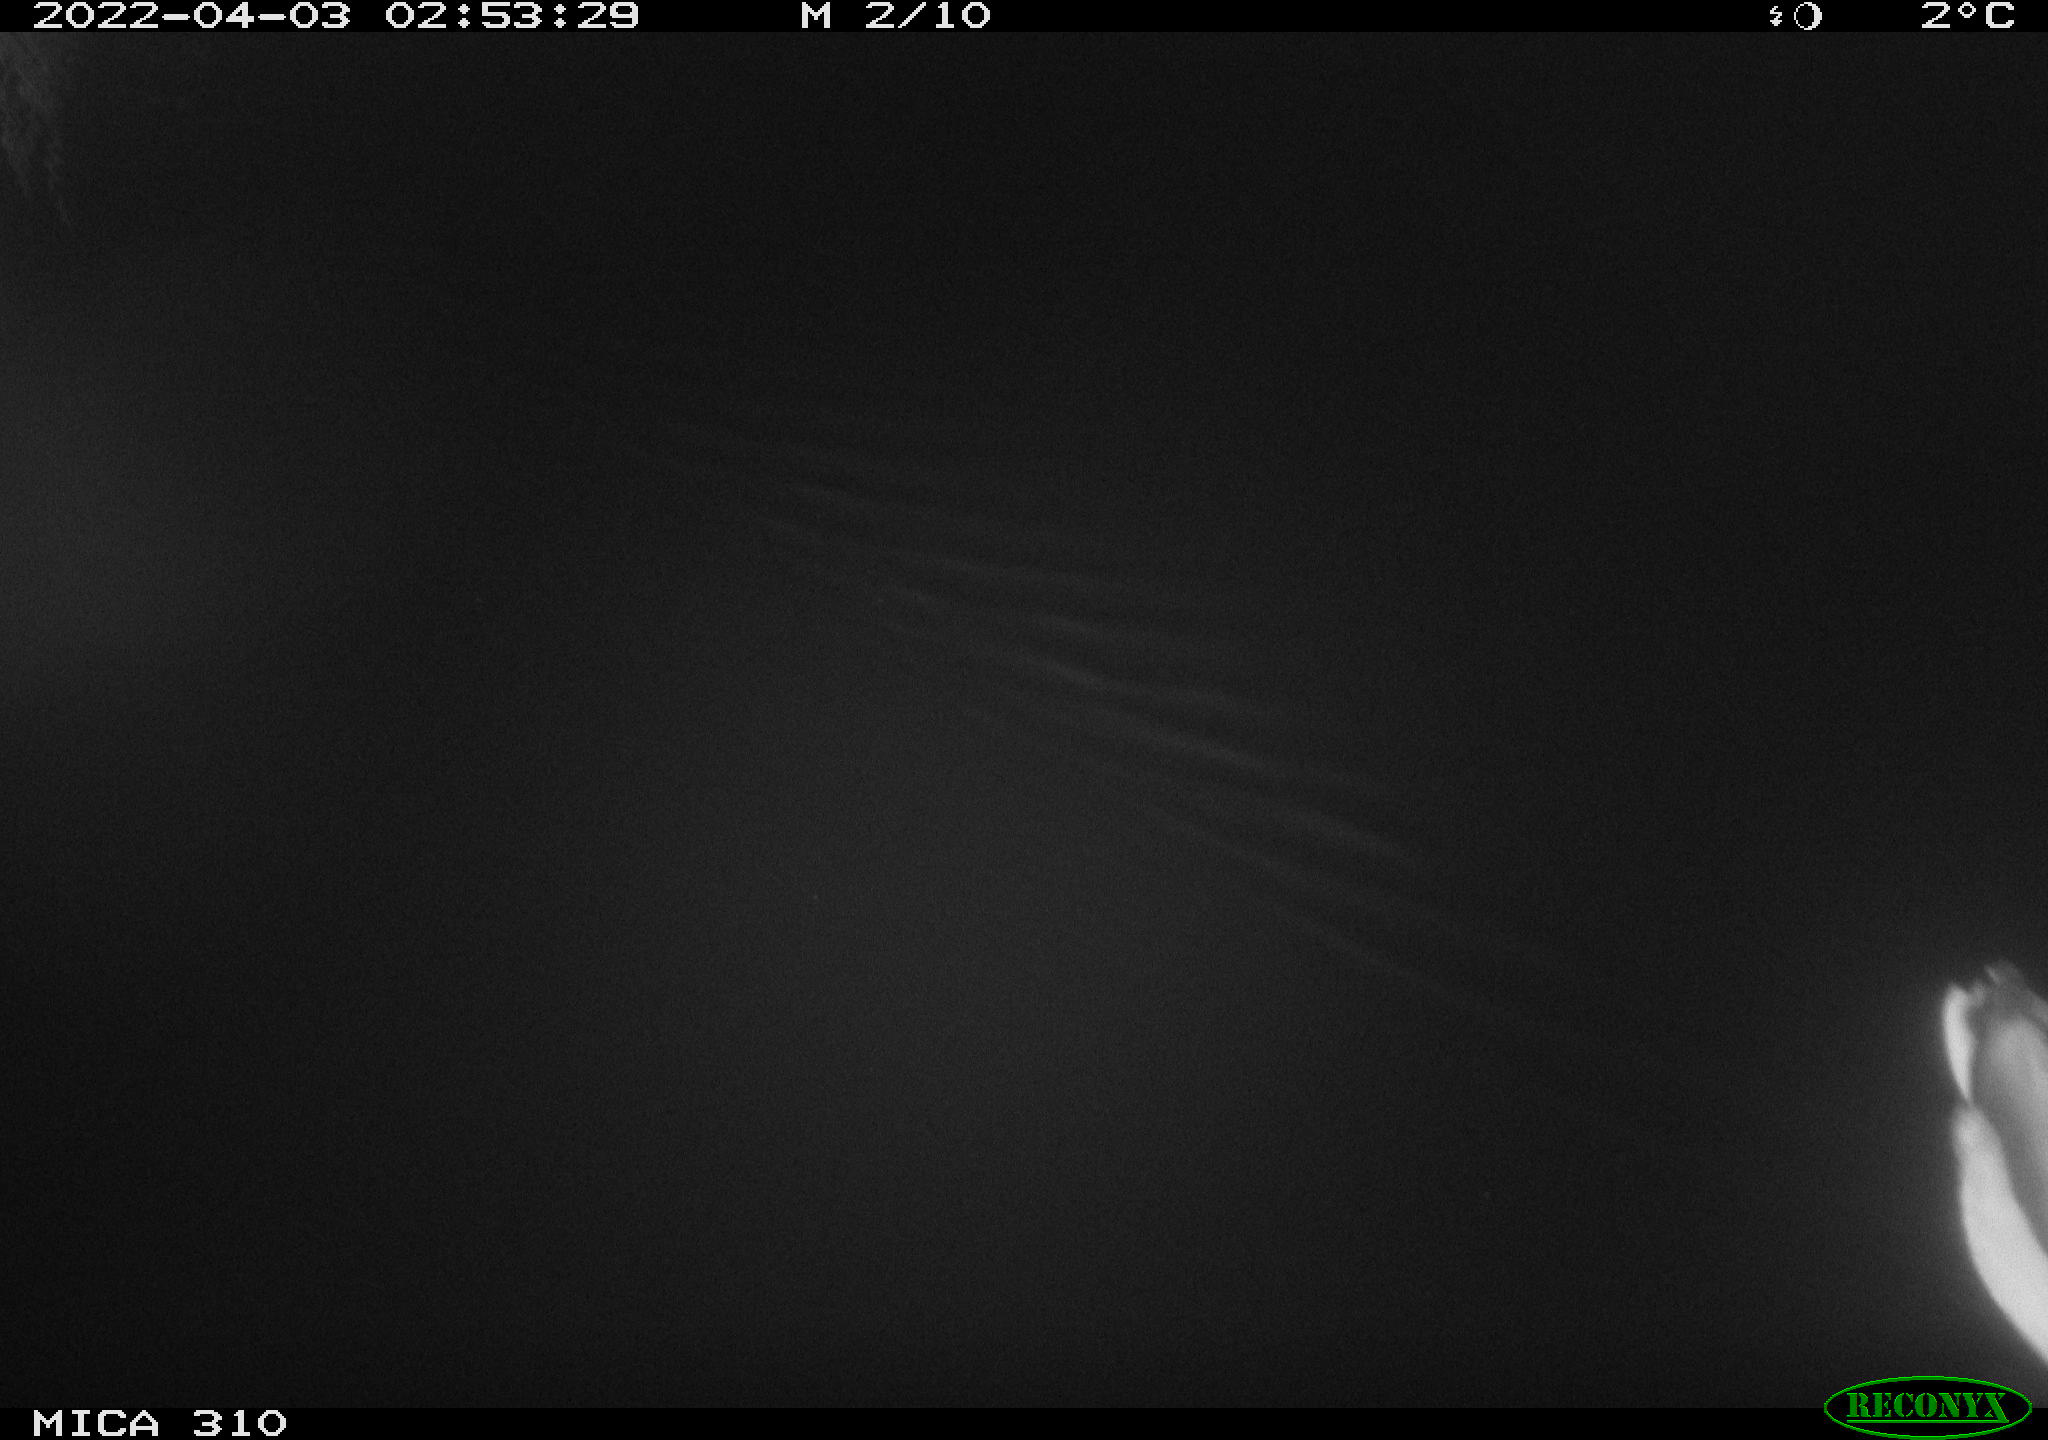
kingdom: Animalia
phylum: Chordata
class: Aves
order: Anseriformes
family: Anatidae
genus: Anas
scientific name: Anas platyrhynchos
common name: Mallard
